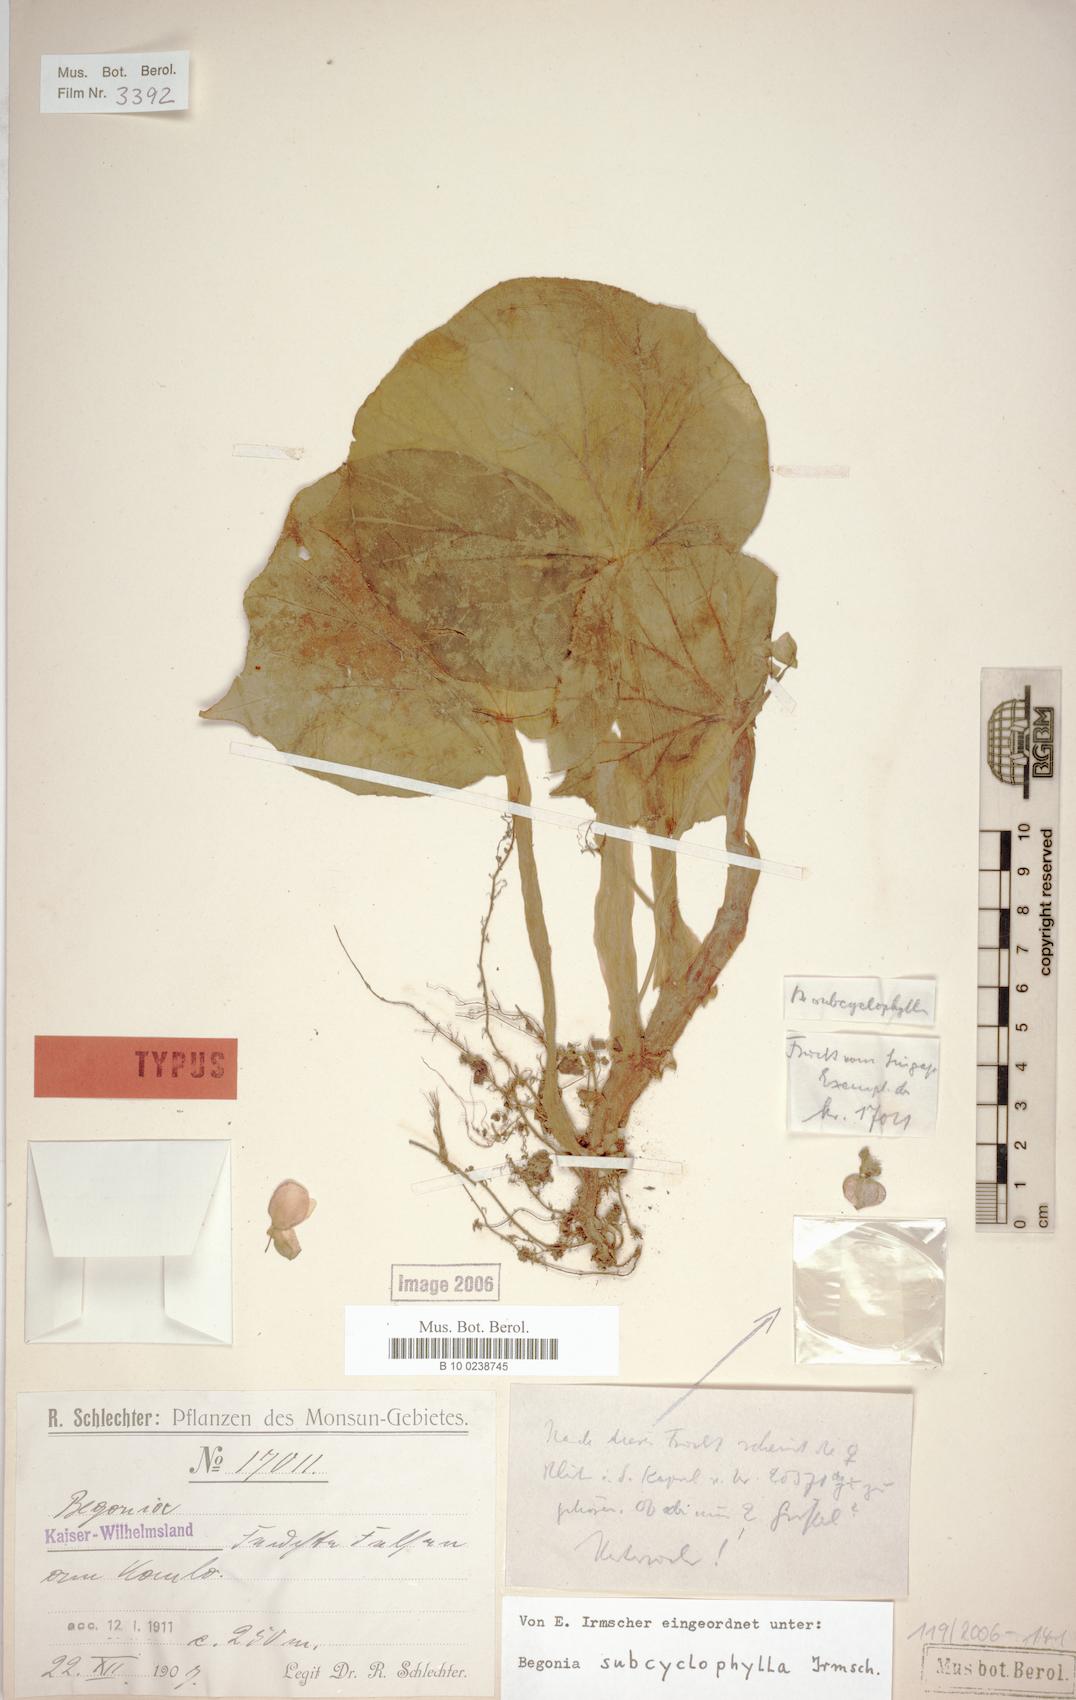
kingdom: Plantae
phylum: Tracheophyta
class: Magnoliopsida
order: Cucurbitales
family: Begoniaceae
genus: Begonia
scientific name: Begonia subcyclophylla
